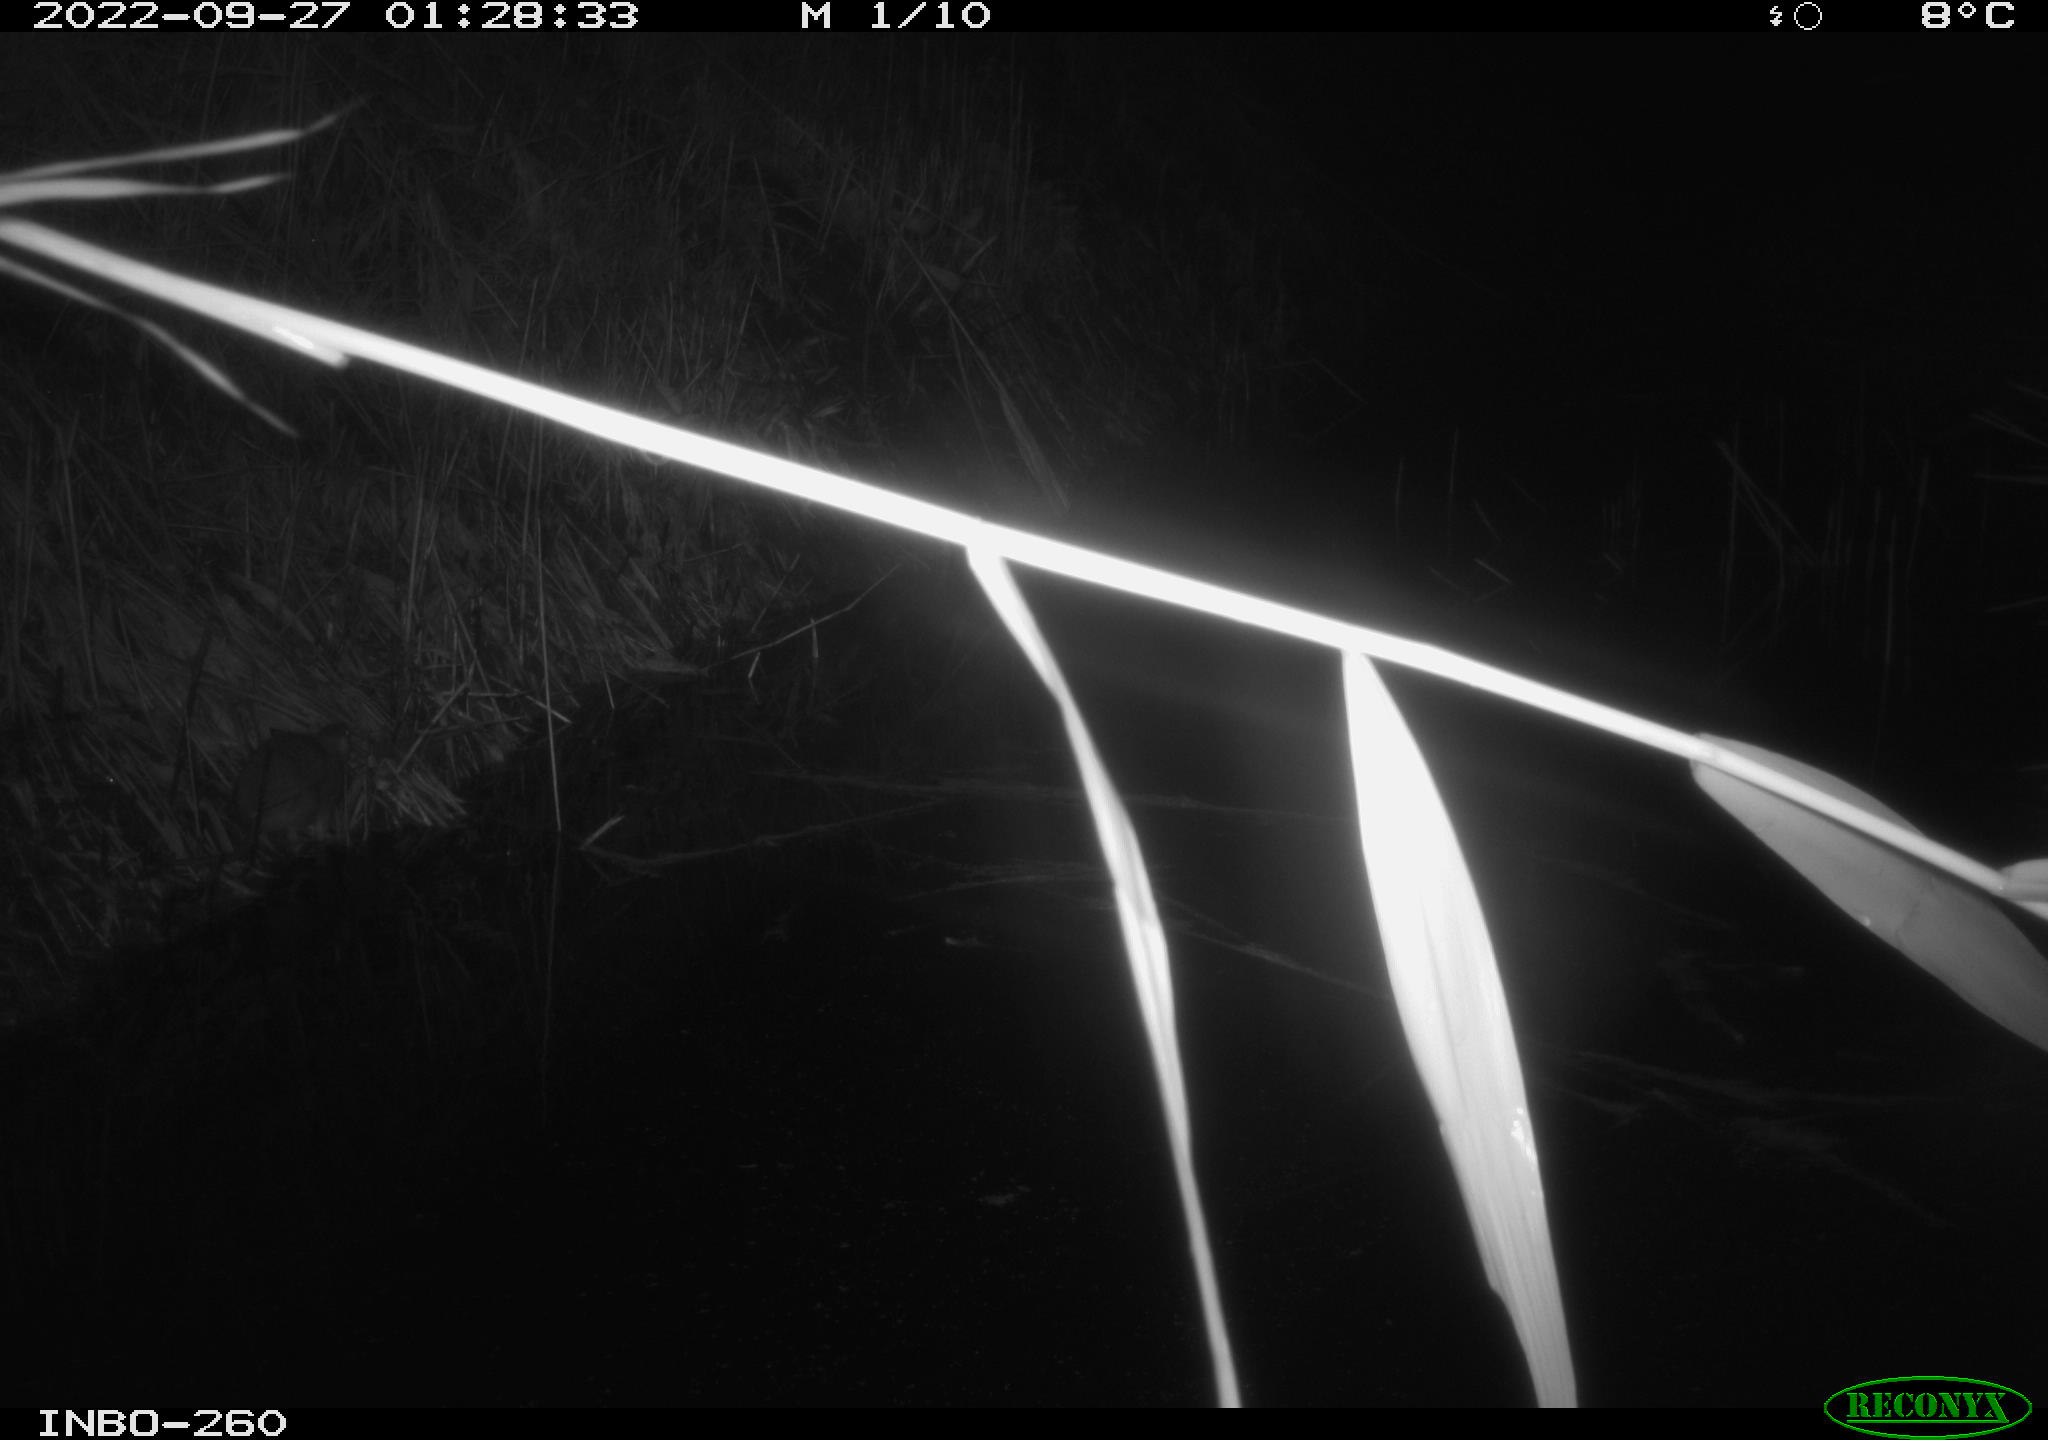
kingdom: Animalia
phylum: Chordata
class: Mammalia
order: Rodentia
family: Muridae
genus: Rattus
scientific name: Rattus norvegicus
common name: Brown rat
